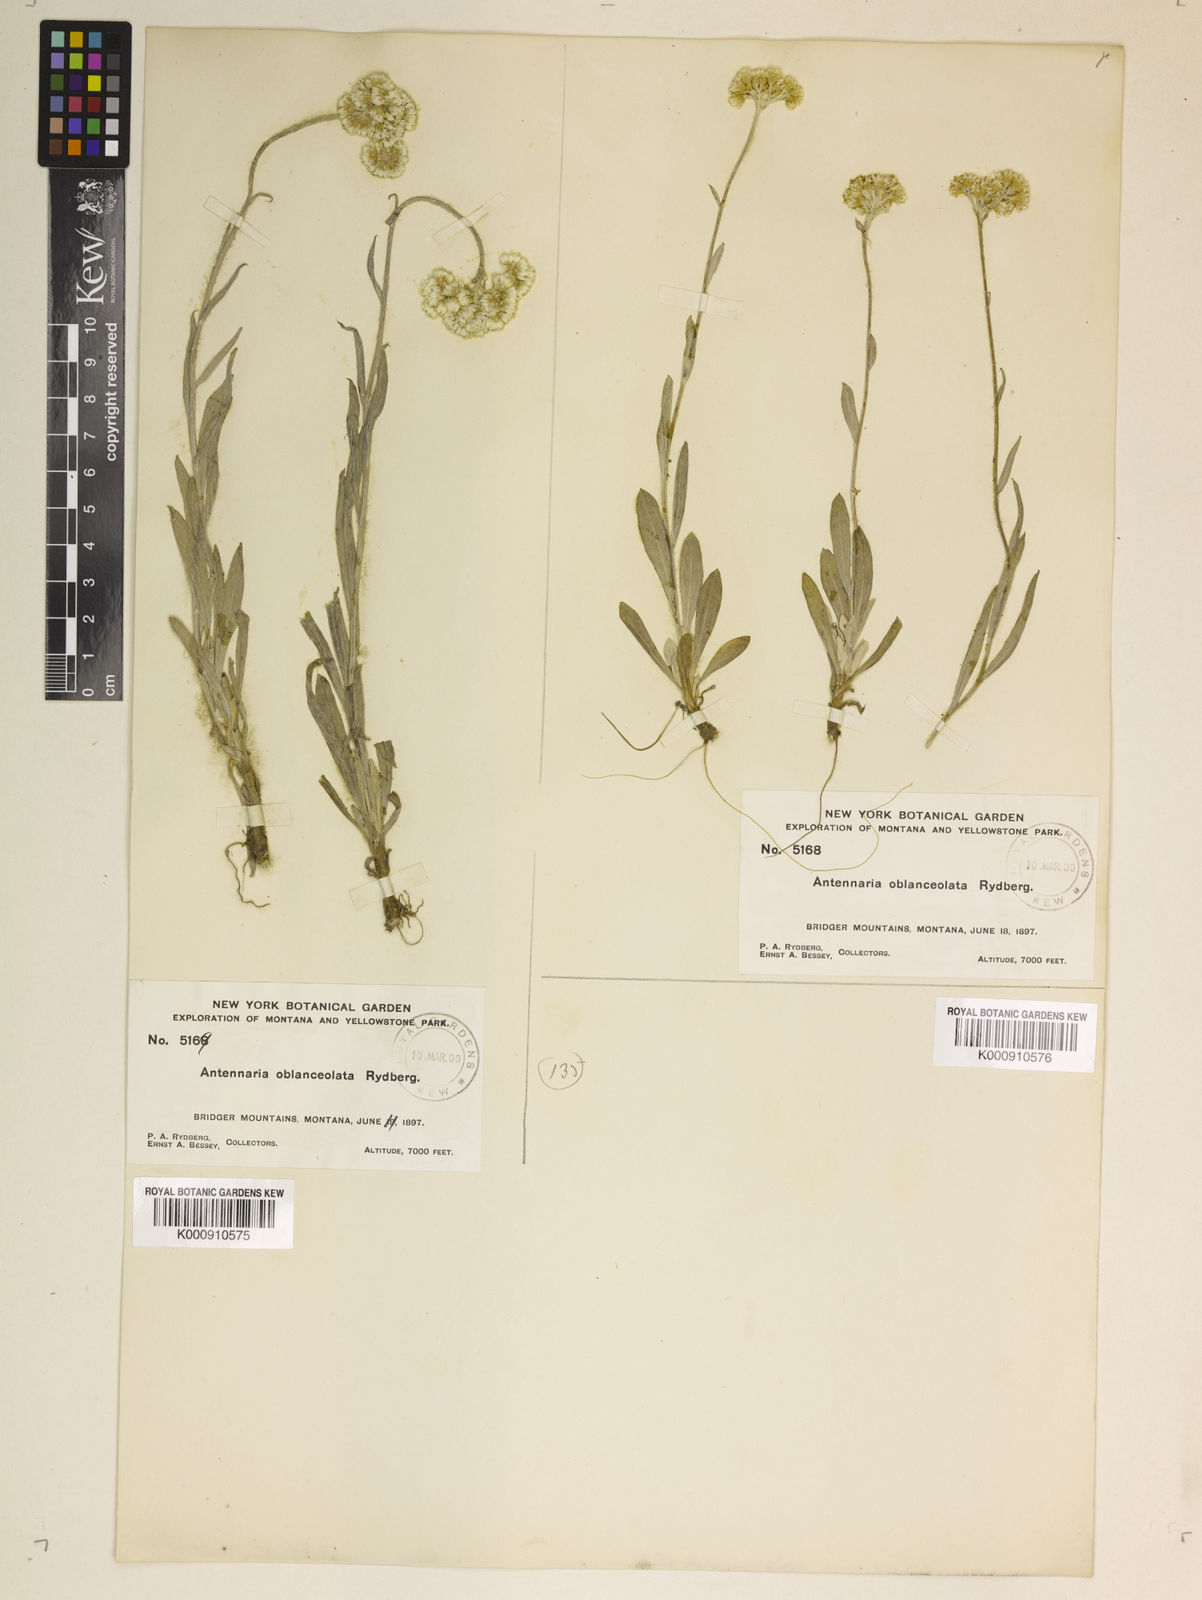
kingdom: Plantae
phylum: Tracheophyta
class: Magnoliopsida
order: Asterales
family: Asteraceae
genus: Antennaria
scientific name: Antennaria luzuloides
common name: Rush pussytoes
